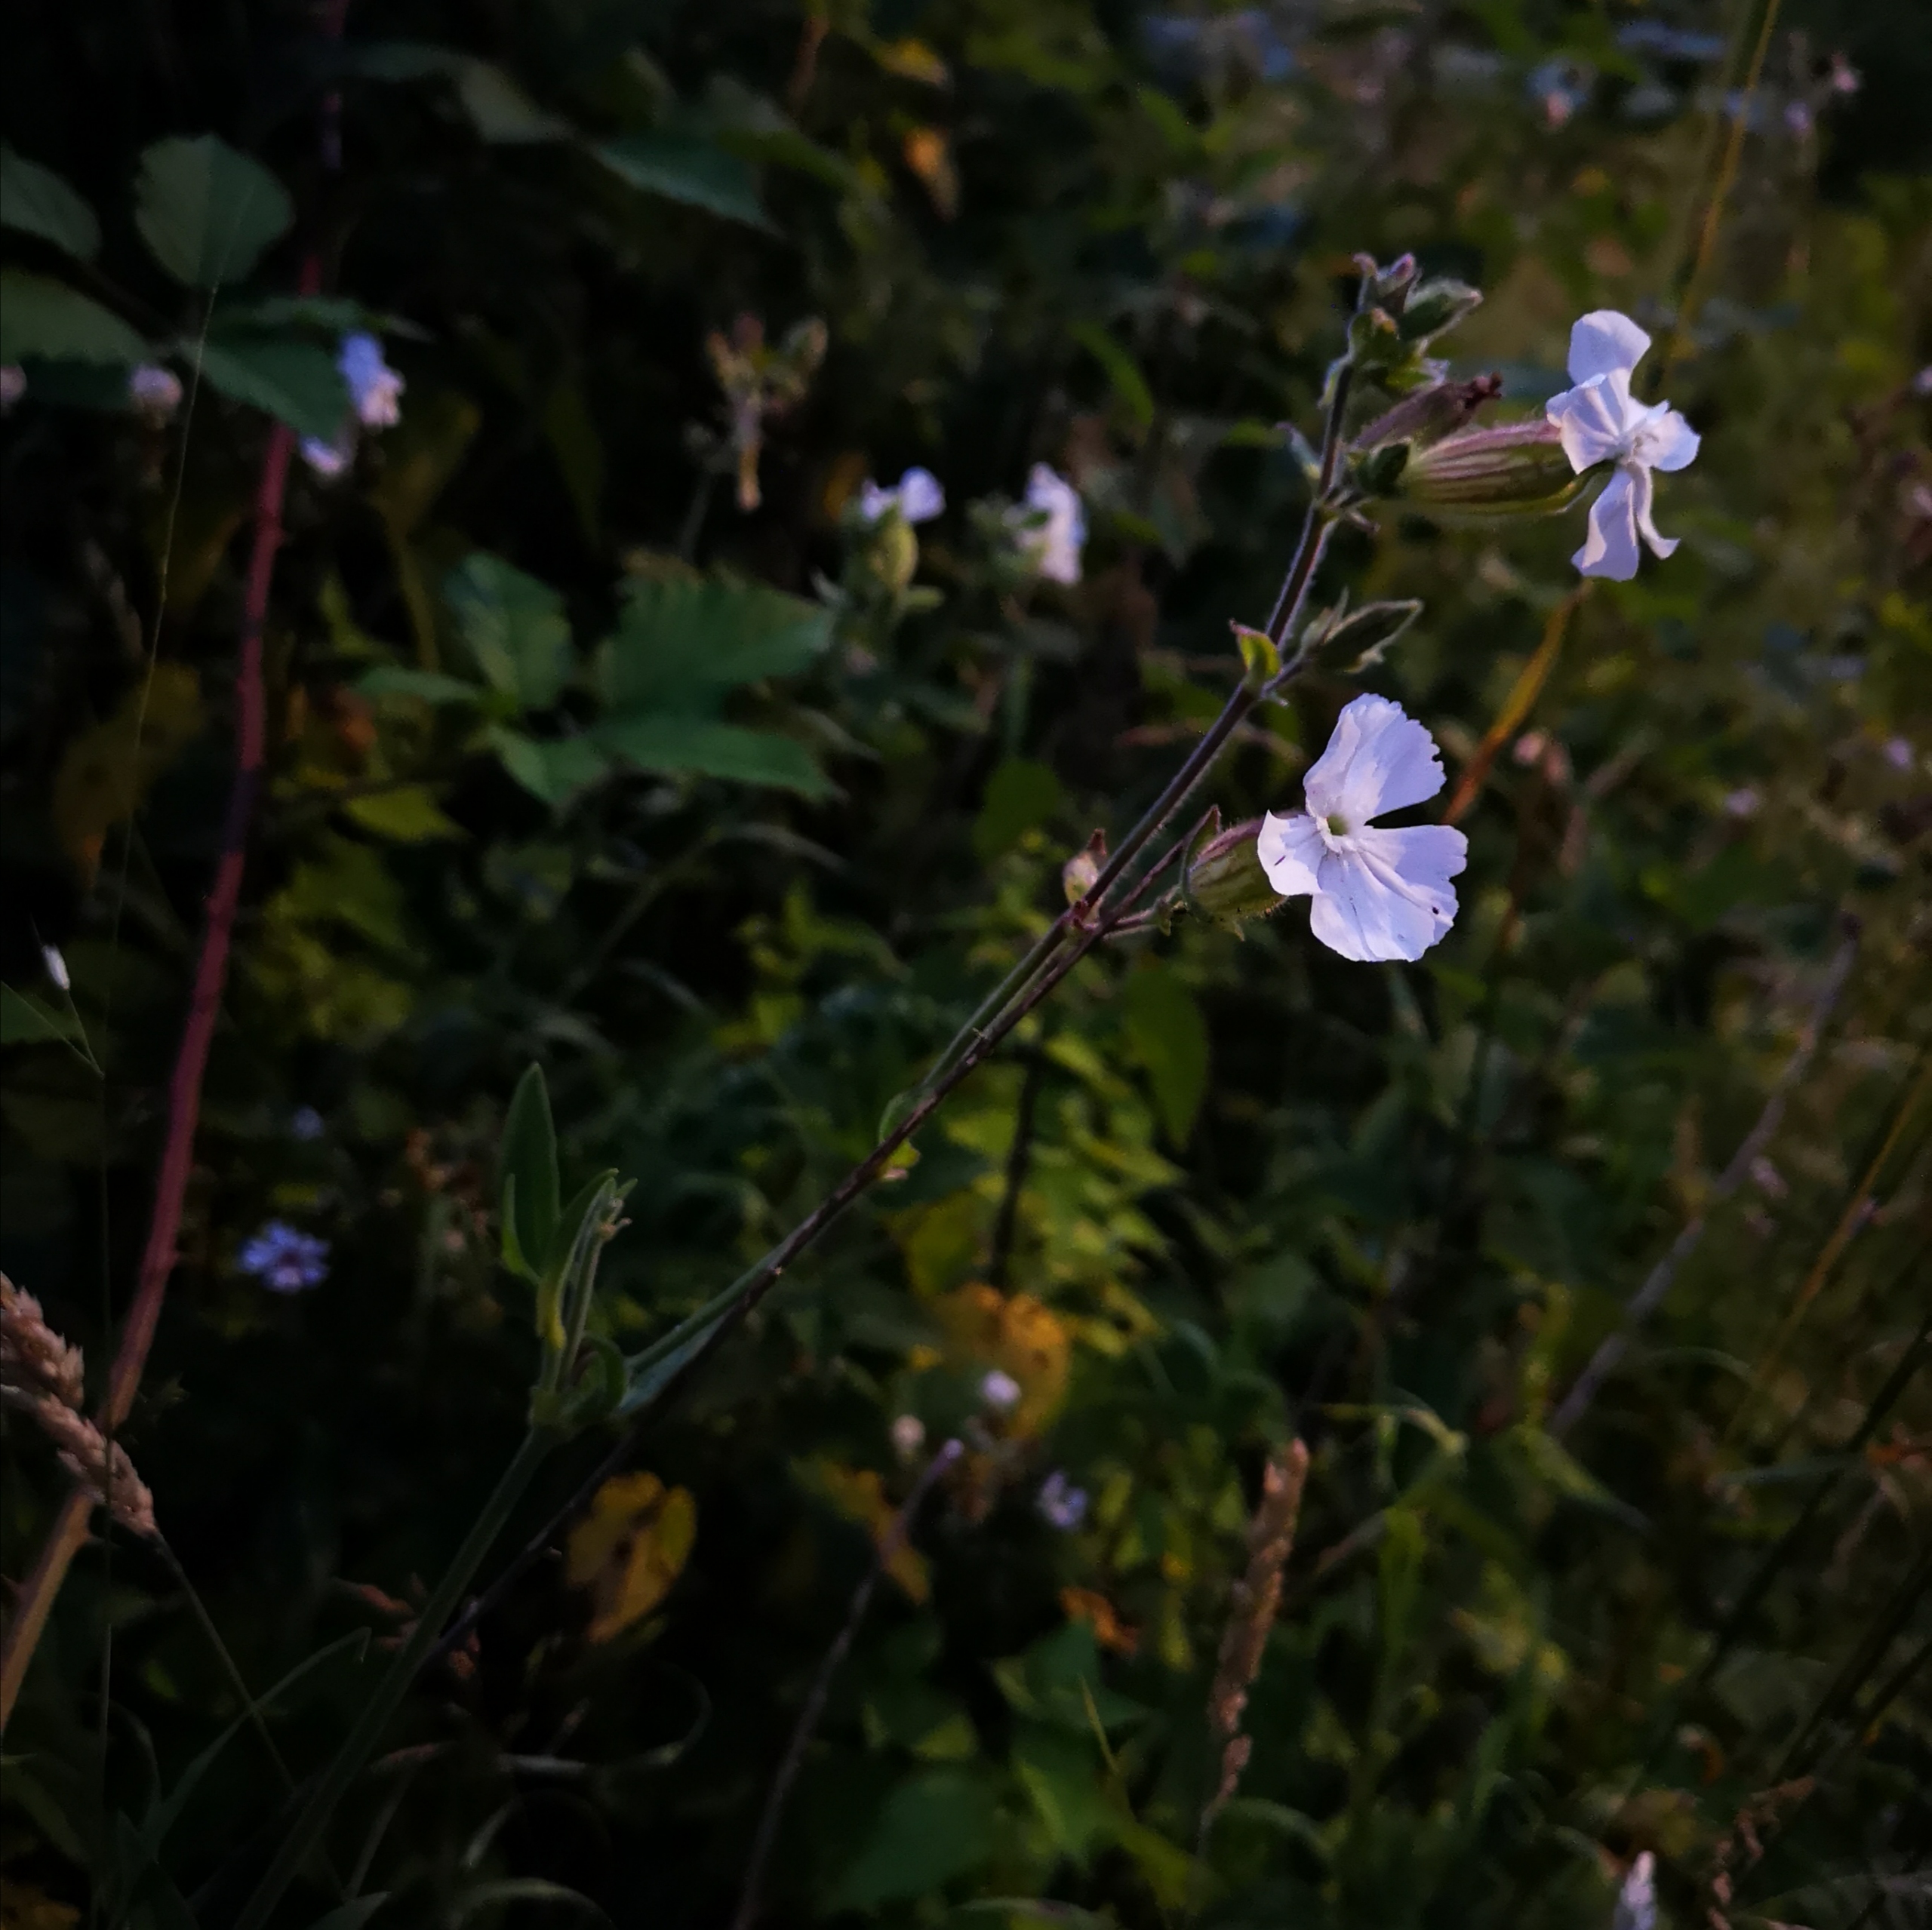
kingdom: Plantae
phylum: Tracheophyta
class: Magnoliopsida
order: Caryophyllales
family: Caryophyllaceae
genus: Silene
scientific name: Silene latifolia
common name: Aftenpragtstjerne
